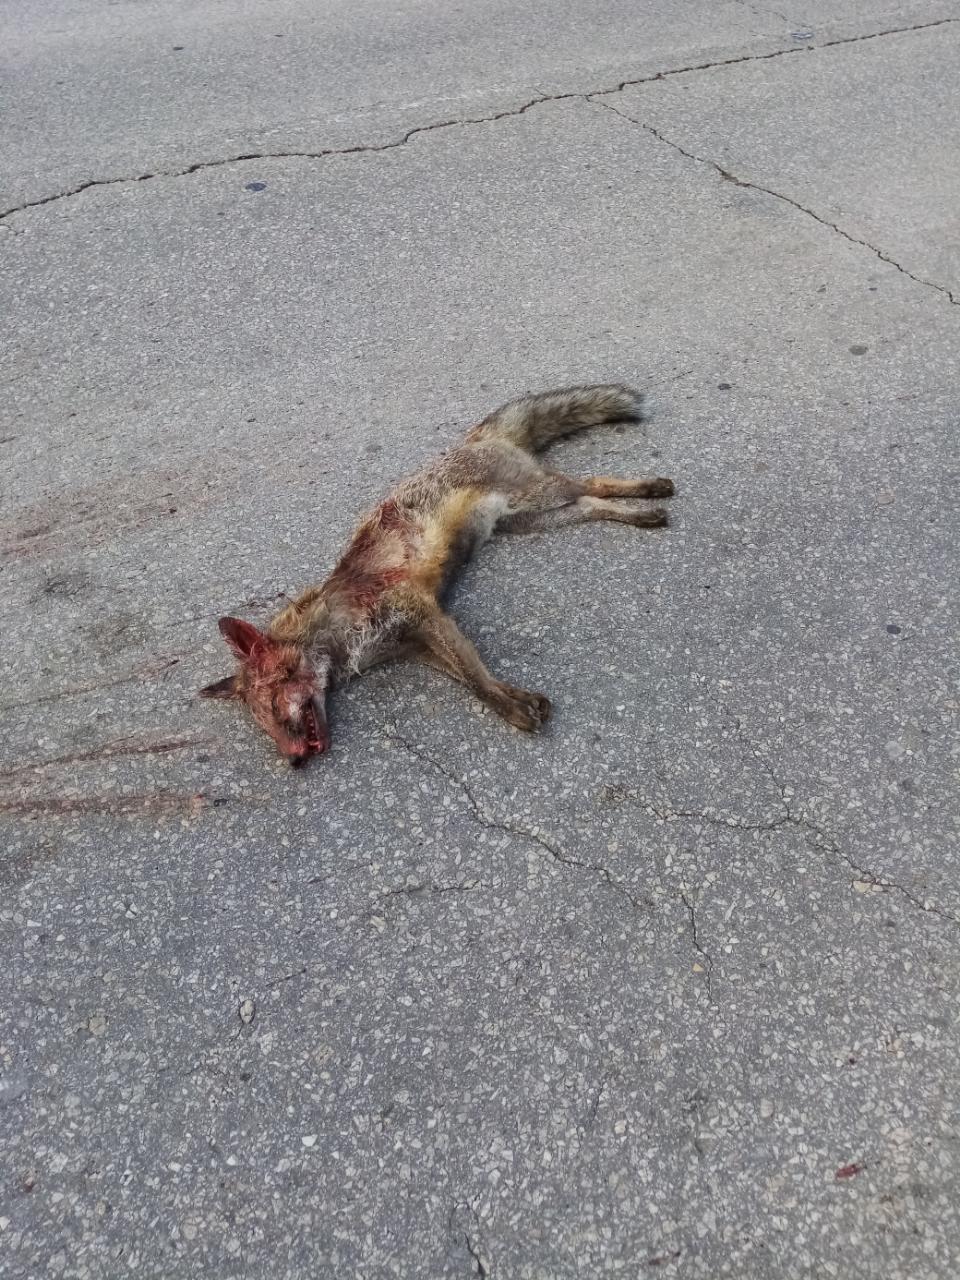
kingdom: Animalia
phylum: Chordata
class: Mammalia
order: Carnivora
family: Canidae
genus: Vulpes
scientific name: Vulpes vulpes
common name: Red fox
